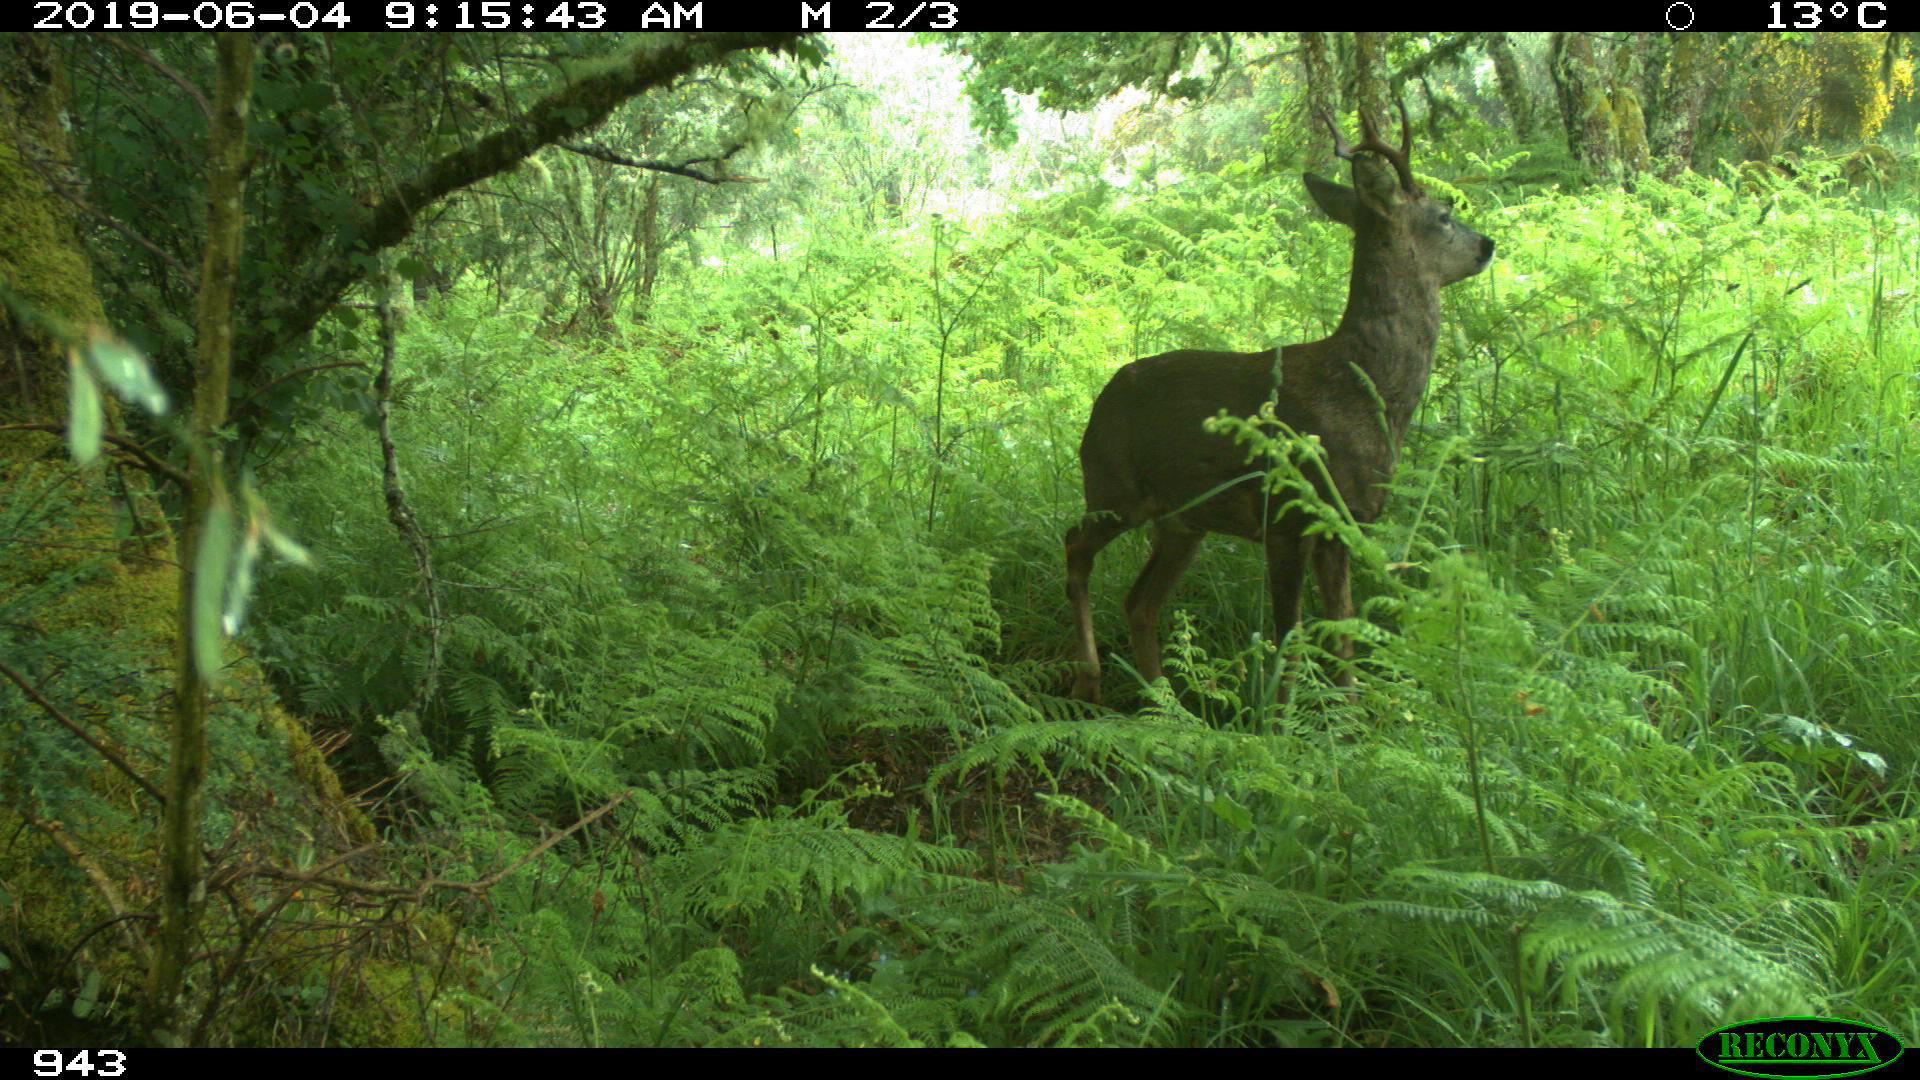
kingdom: Animalia
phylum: Chordata
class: Mammalia
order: Artiodactyla
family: Cervidae
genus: Capreolus
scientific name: Capreolus capreolus
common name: Western roe deer
